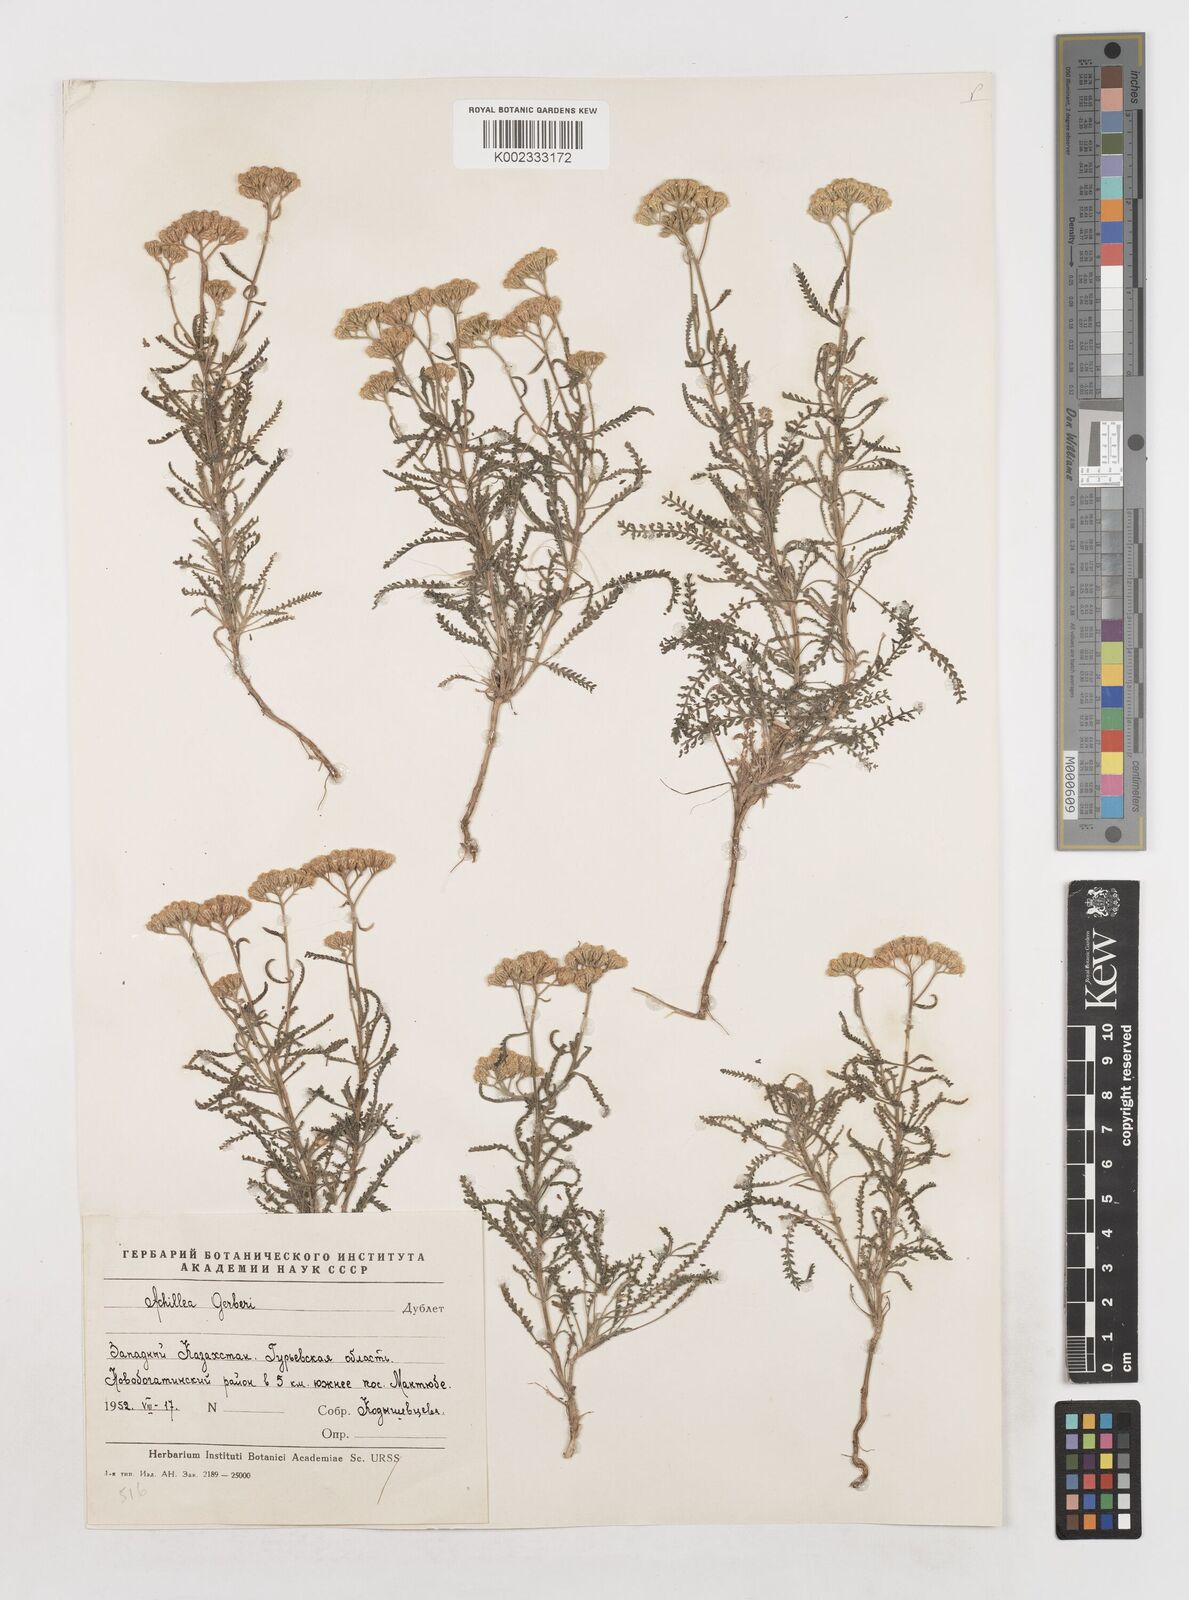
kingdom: Plantae
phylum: Tracheophyta
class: Magnoliopsida
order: Asterales
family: Asteraceae
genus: Achillea
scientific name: Achillea nobilis
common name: Noble yarrow
